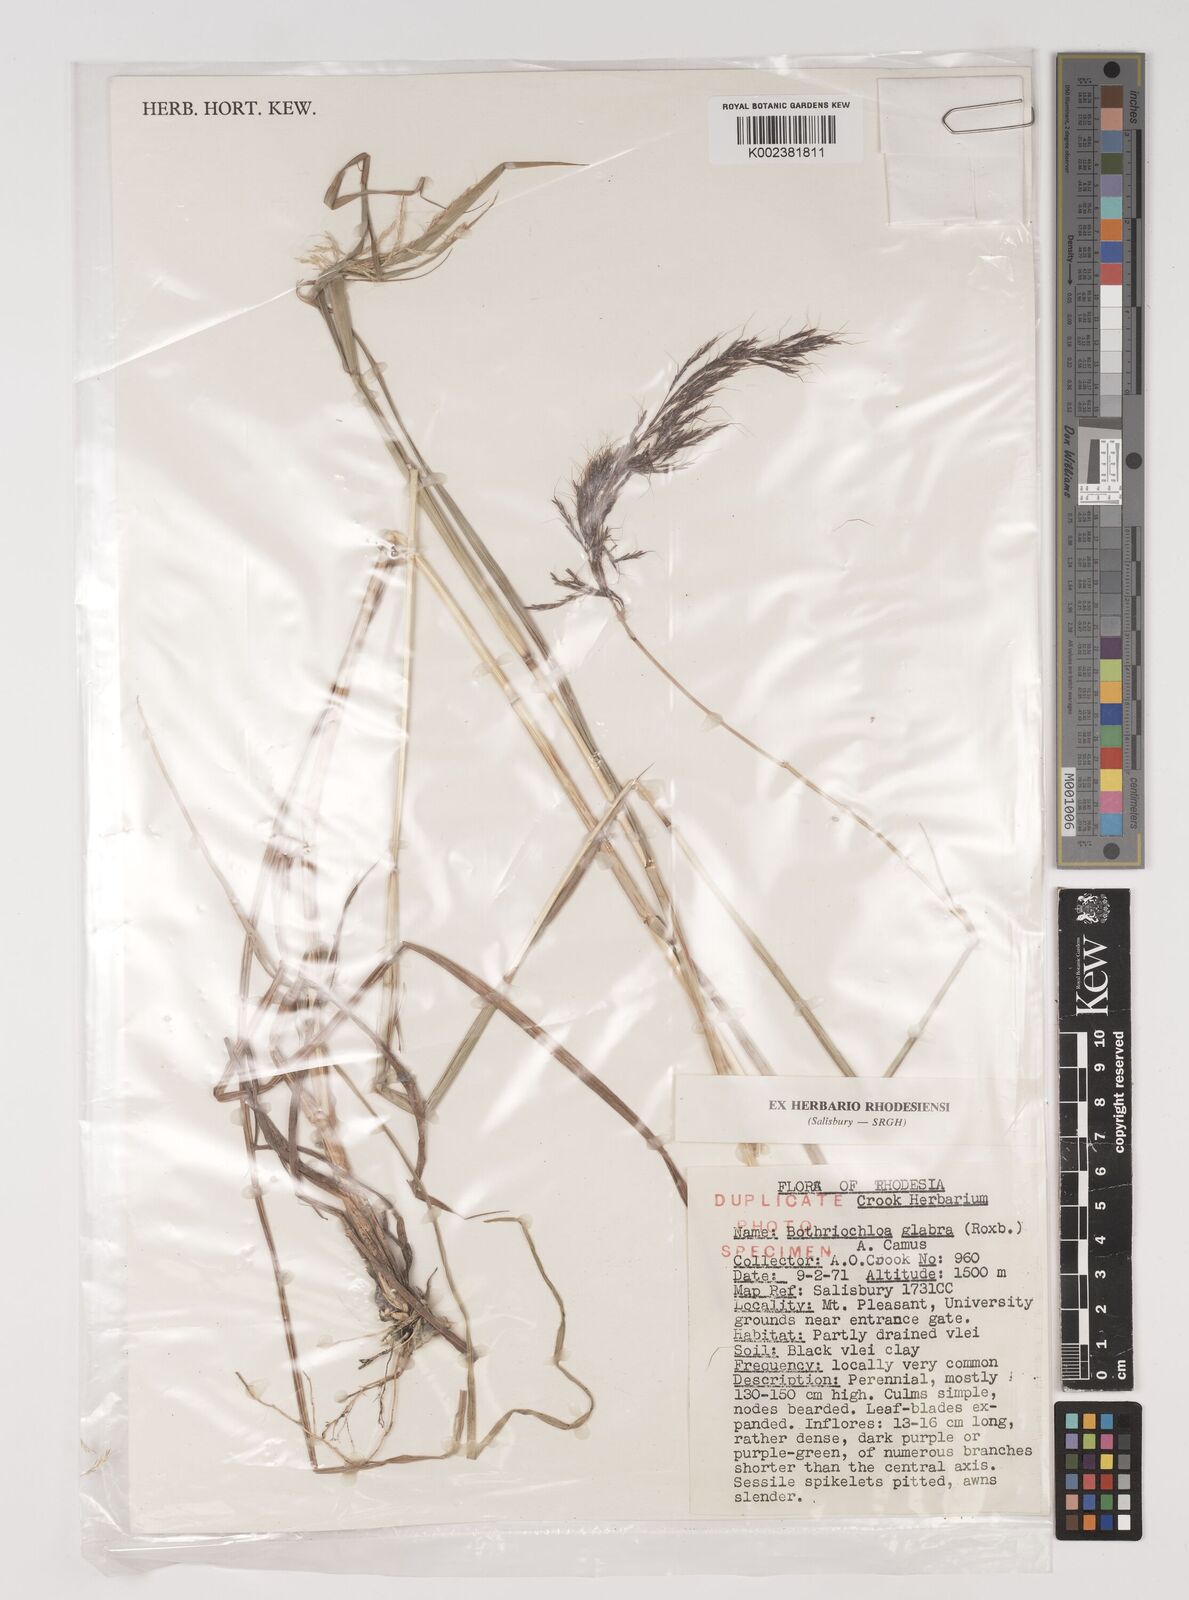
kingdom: Plantae
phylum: Tracheophyta
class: Liliopsida
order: Poales
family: Poaceae
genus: Bothriochloa
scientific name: Bothriochloa bladhii
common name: Caucasian bluestem
